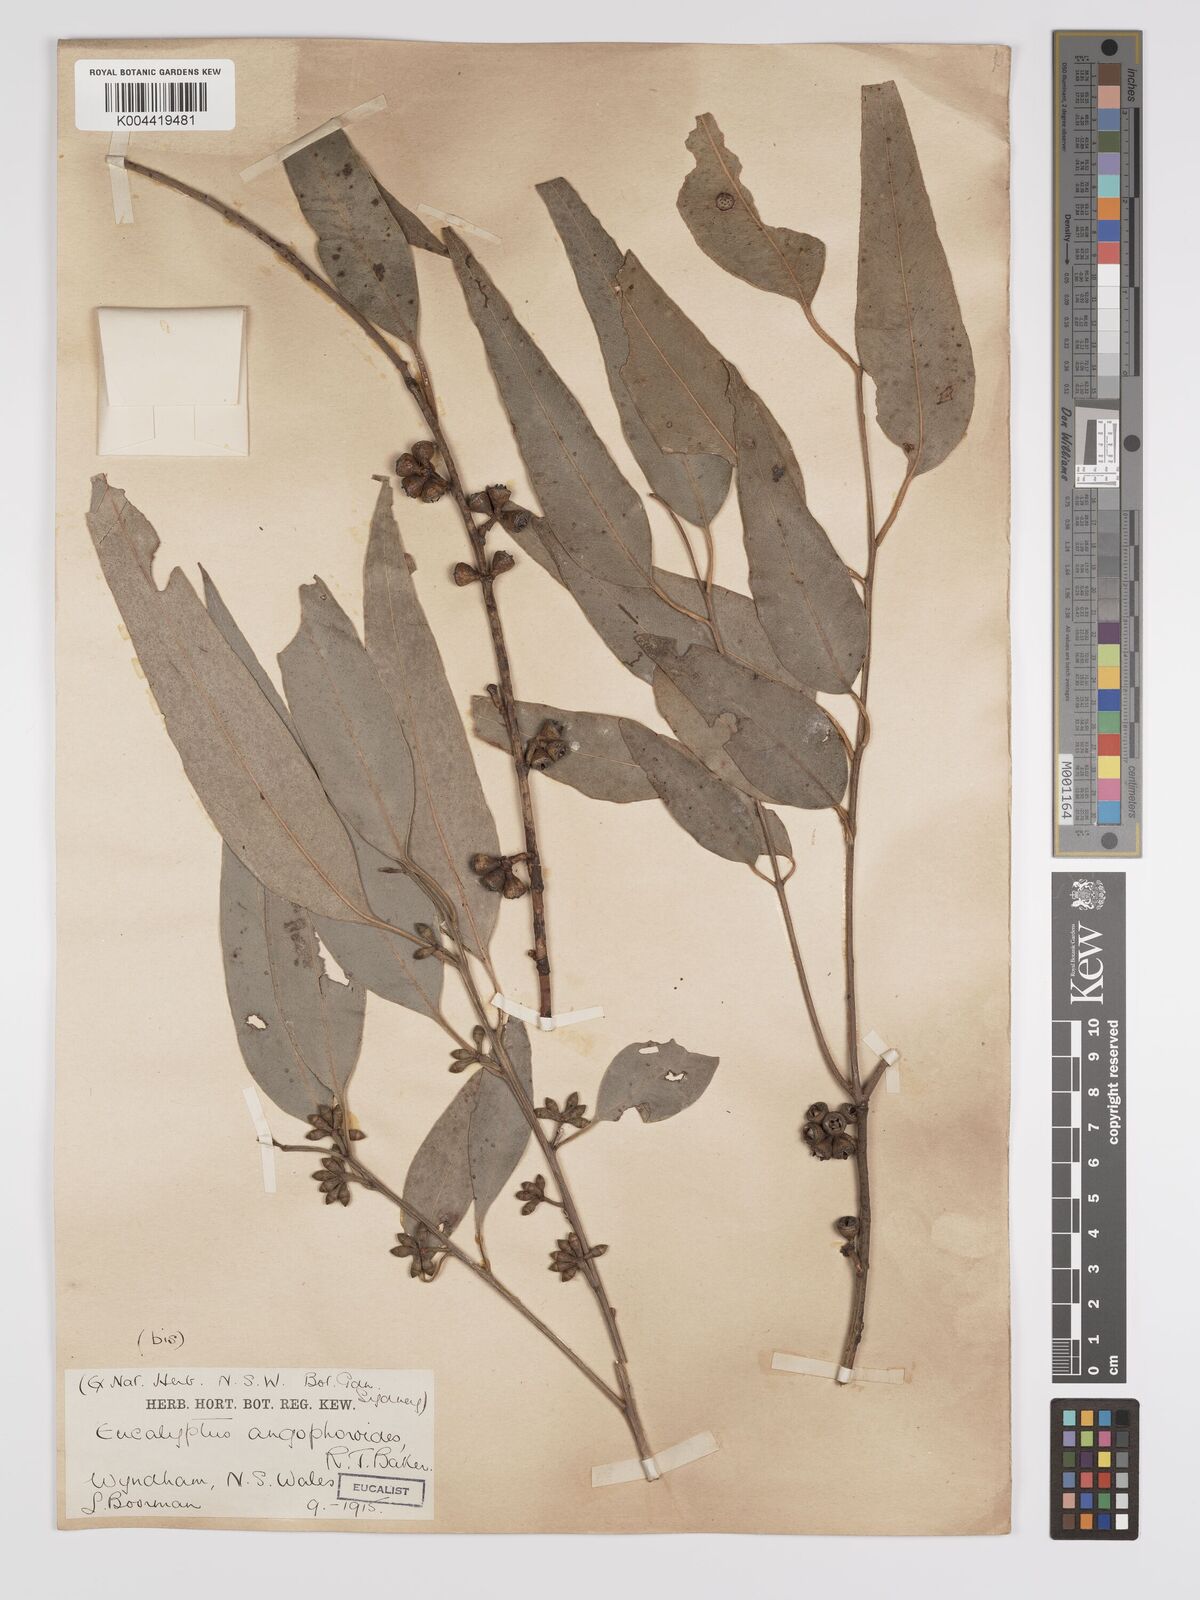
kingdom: Plantae
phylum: Tracheophyta
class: Magnoliopsida
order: Myrtales
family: Myrtaceae
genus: Eucalyptus
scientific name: Eucalyptus angophoroides
